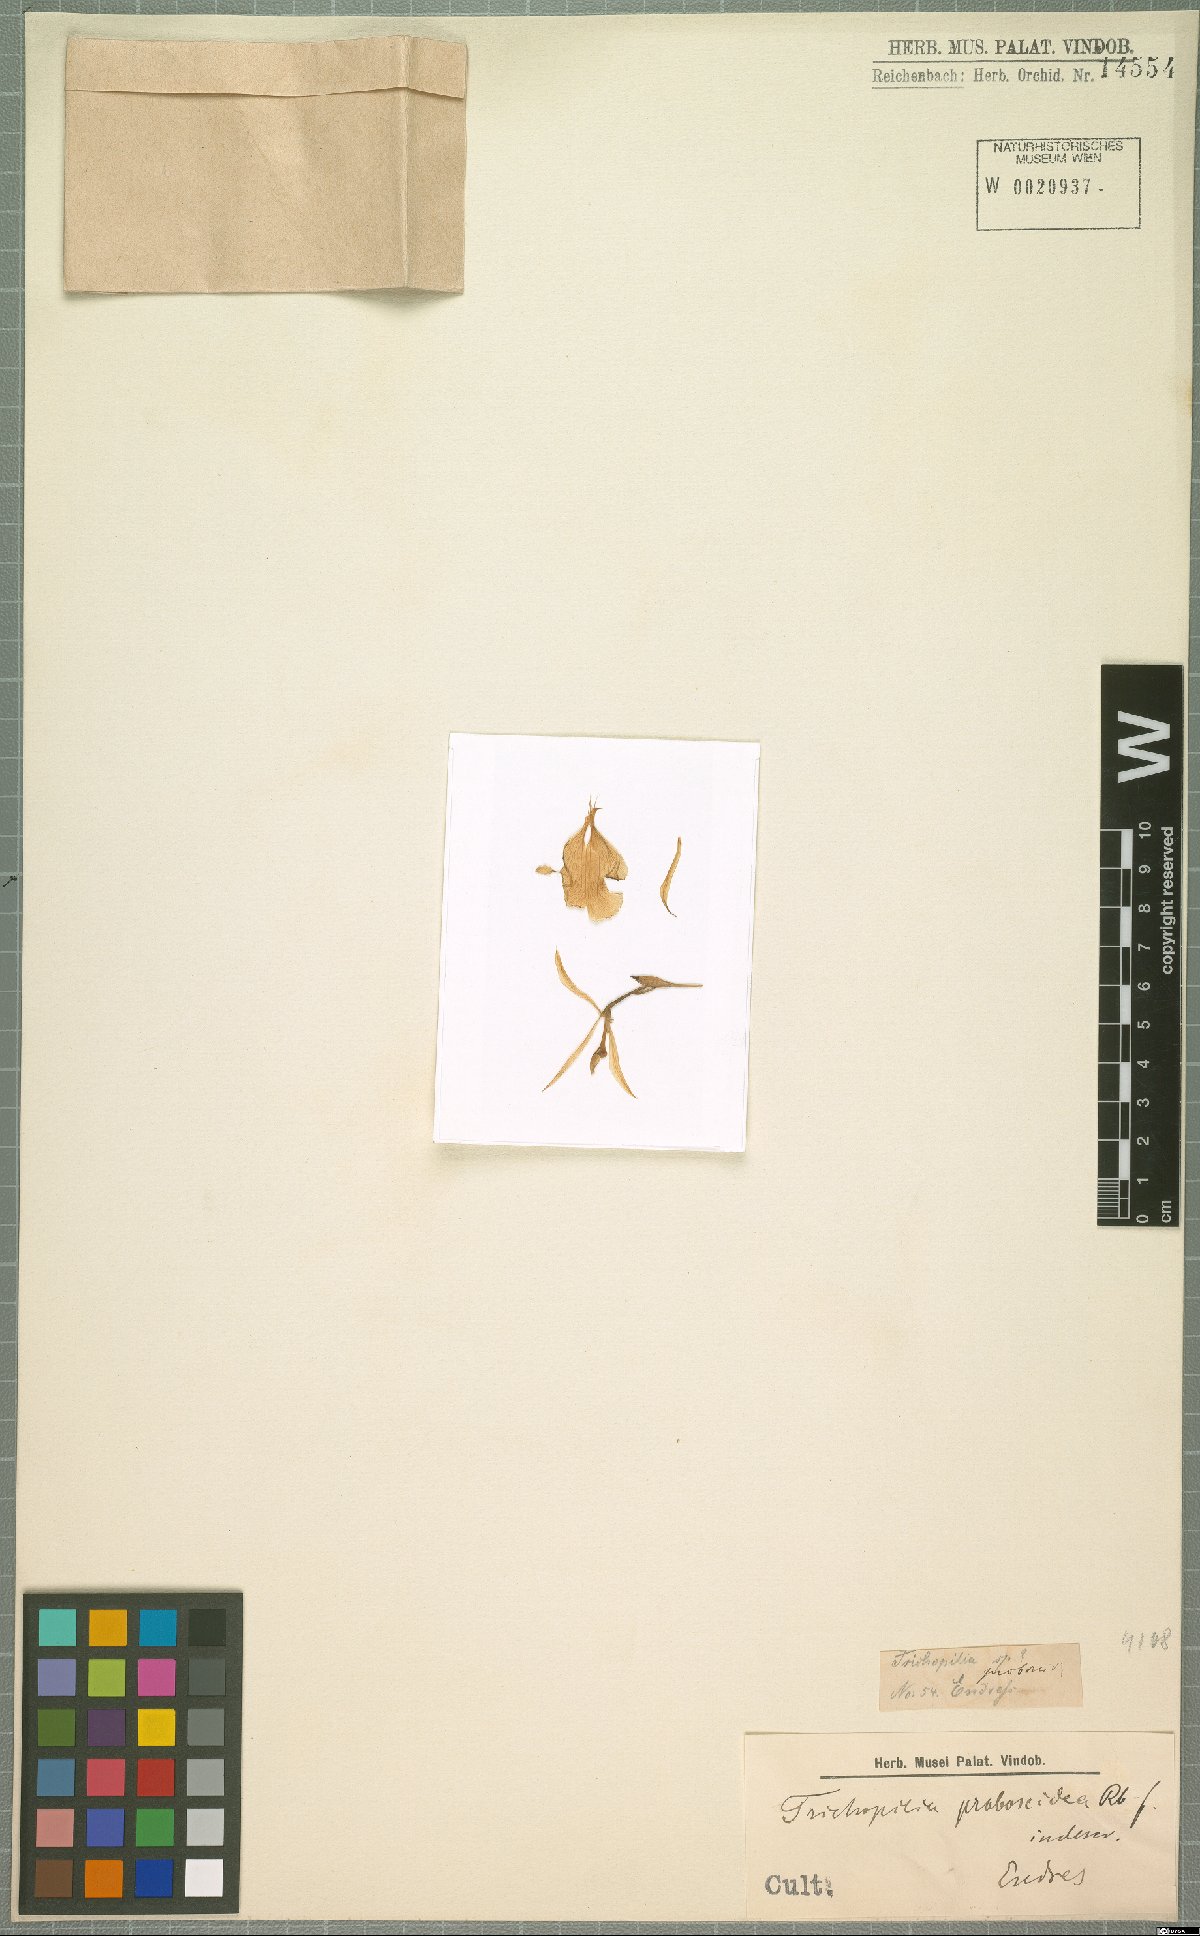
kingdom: Plantae
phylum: Tracheophyta
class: Liliopsida
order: Asparagales
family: Orchidaceae
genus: Trichopilia
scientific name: Trichopilia
